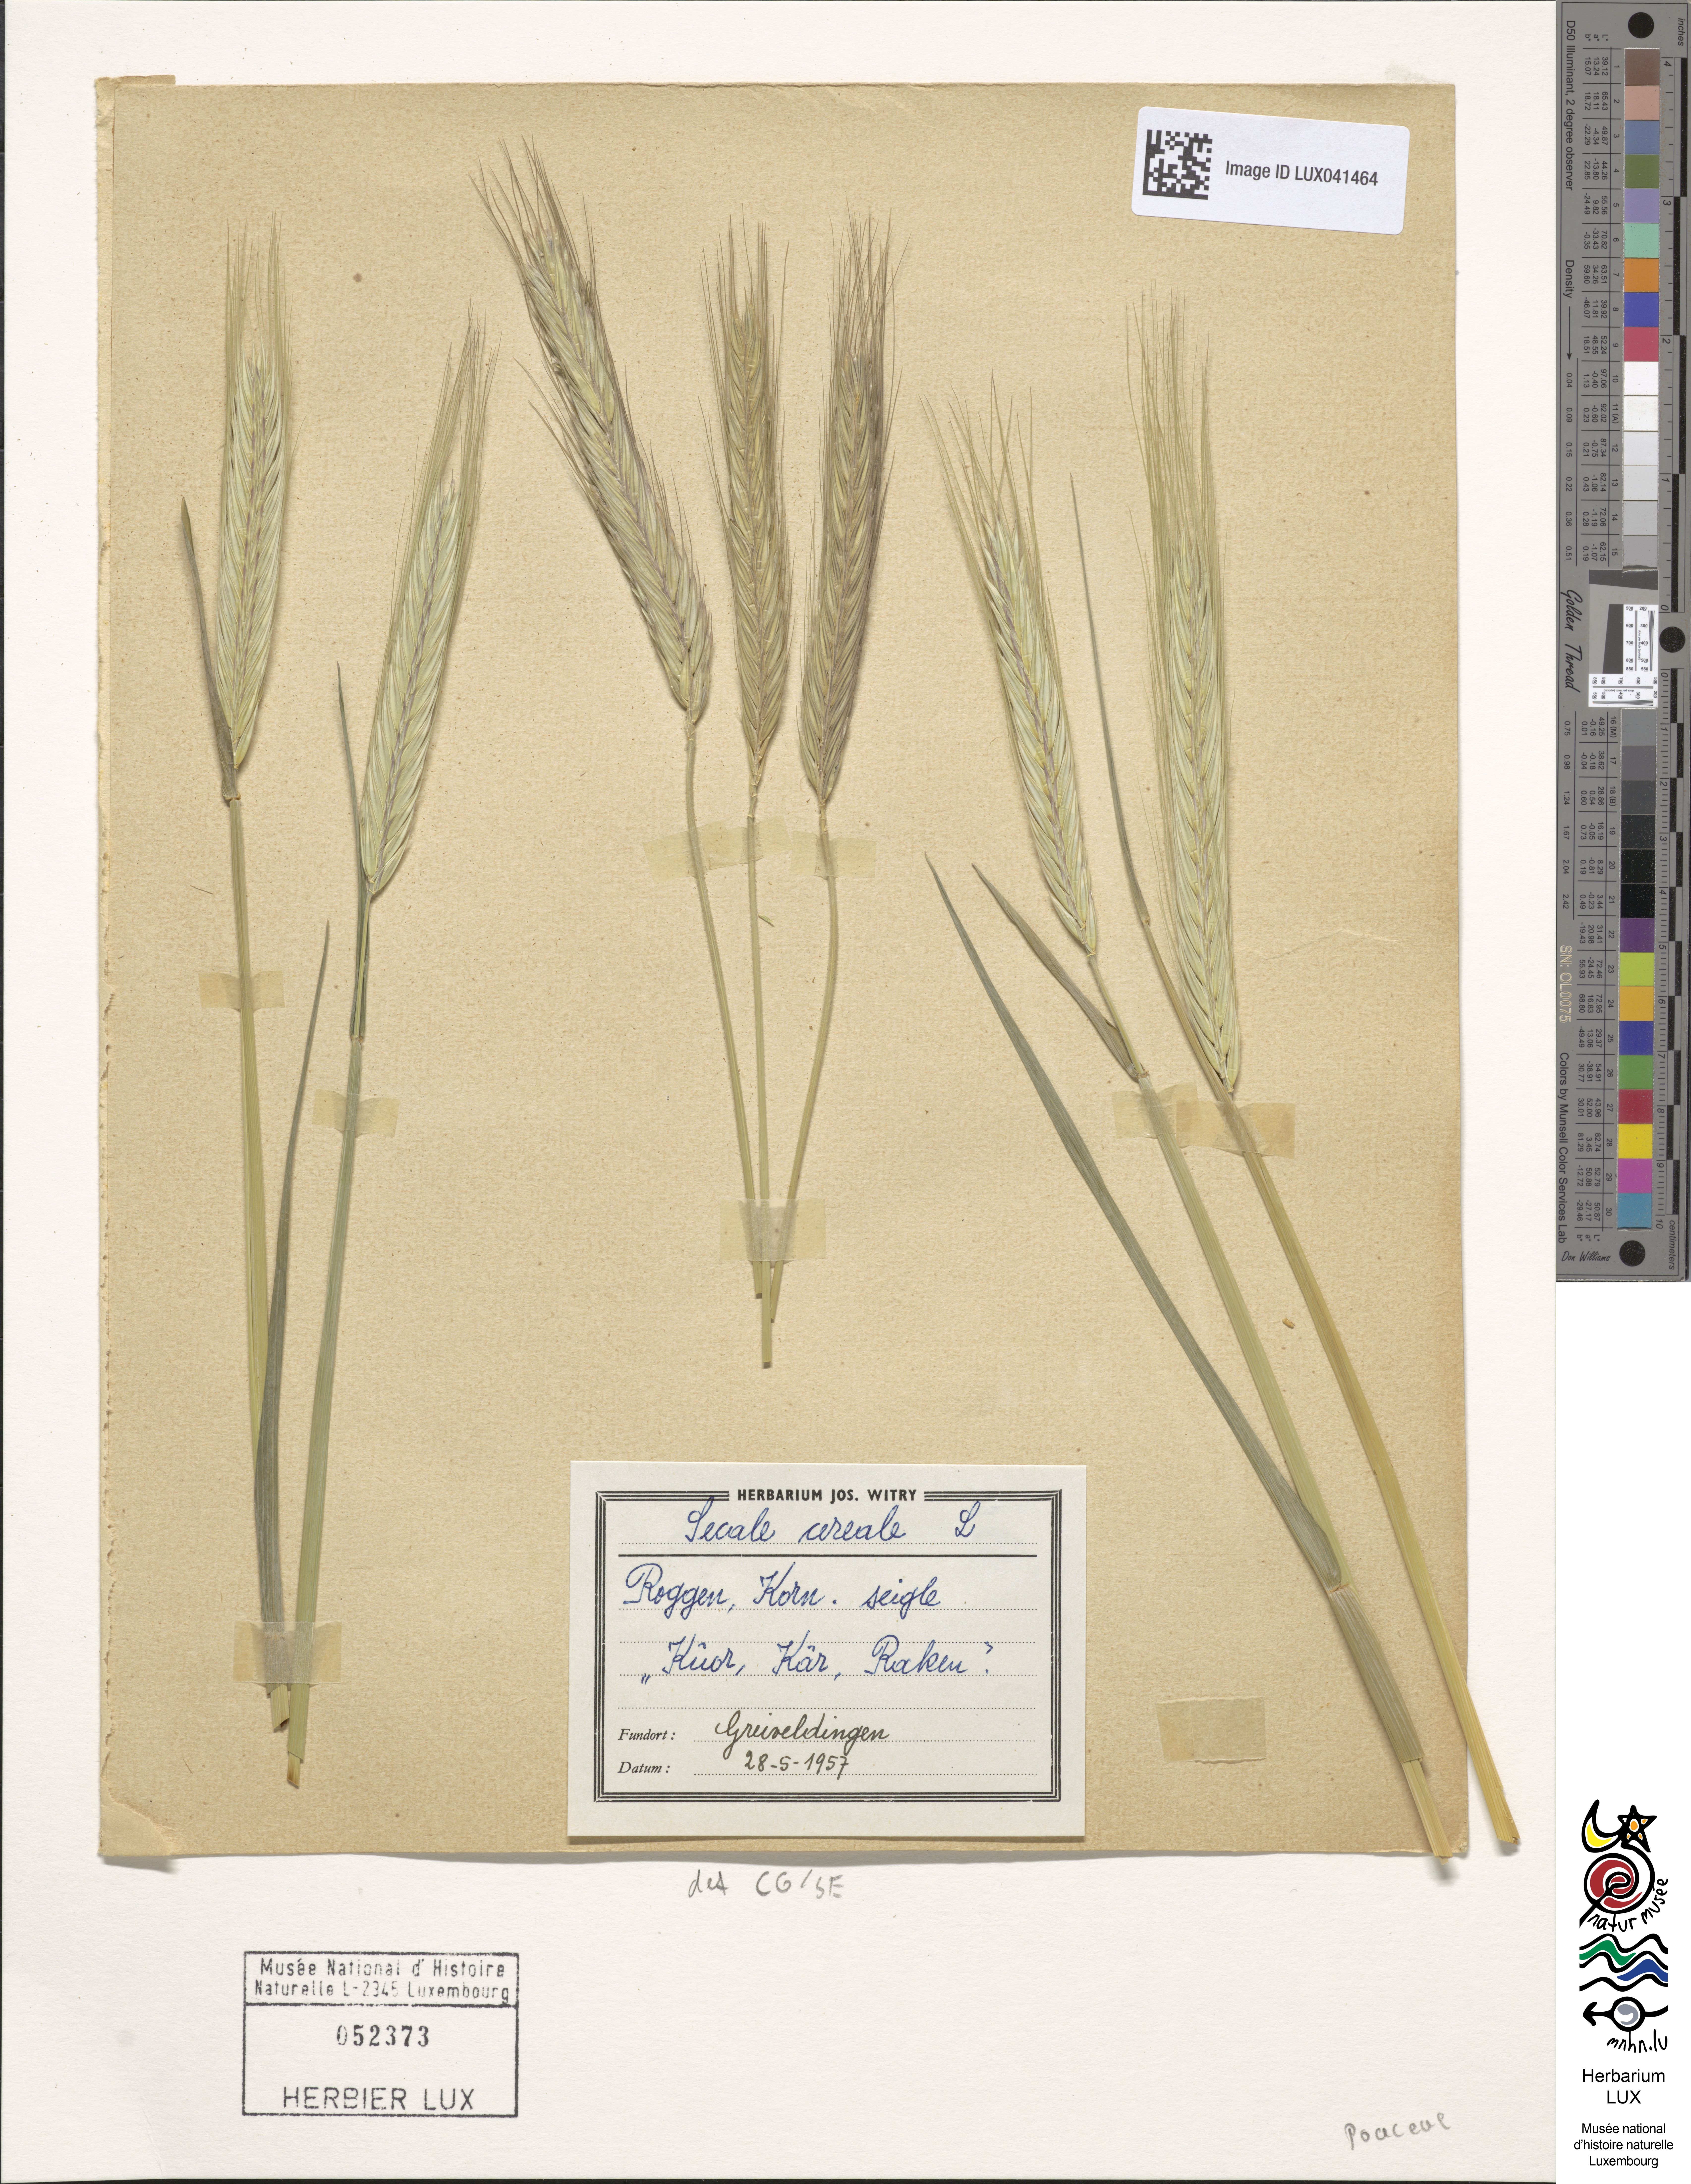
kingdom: Plantae
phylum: Tracheophyta
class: Liliopsida
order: Poales
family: Poaceae
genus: Secale
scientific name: Secale cereale
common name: Rye
